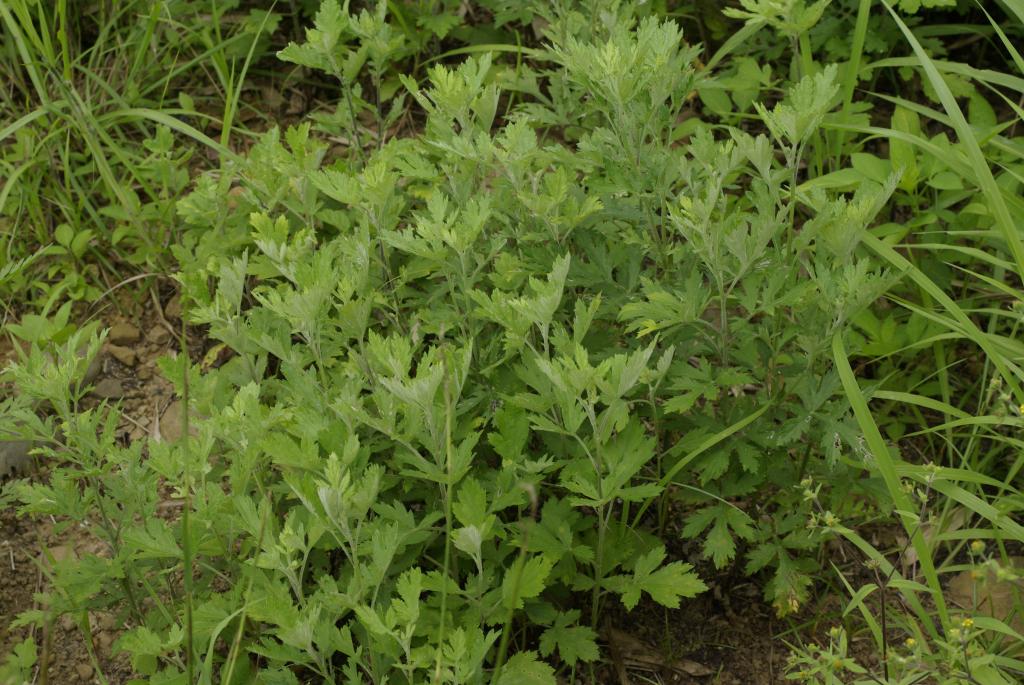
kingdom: Plantae
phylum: Tracheophyta
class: Magnoliopsida
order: Asterales
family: Asteraceae
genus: Artemisia
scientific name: Artemisia indica
